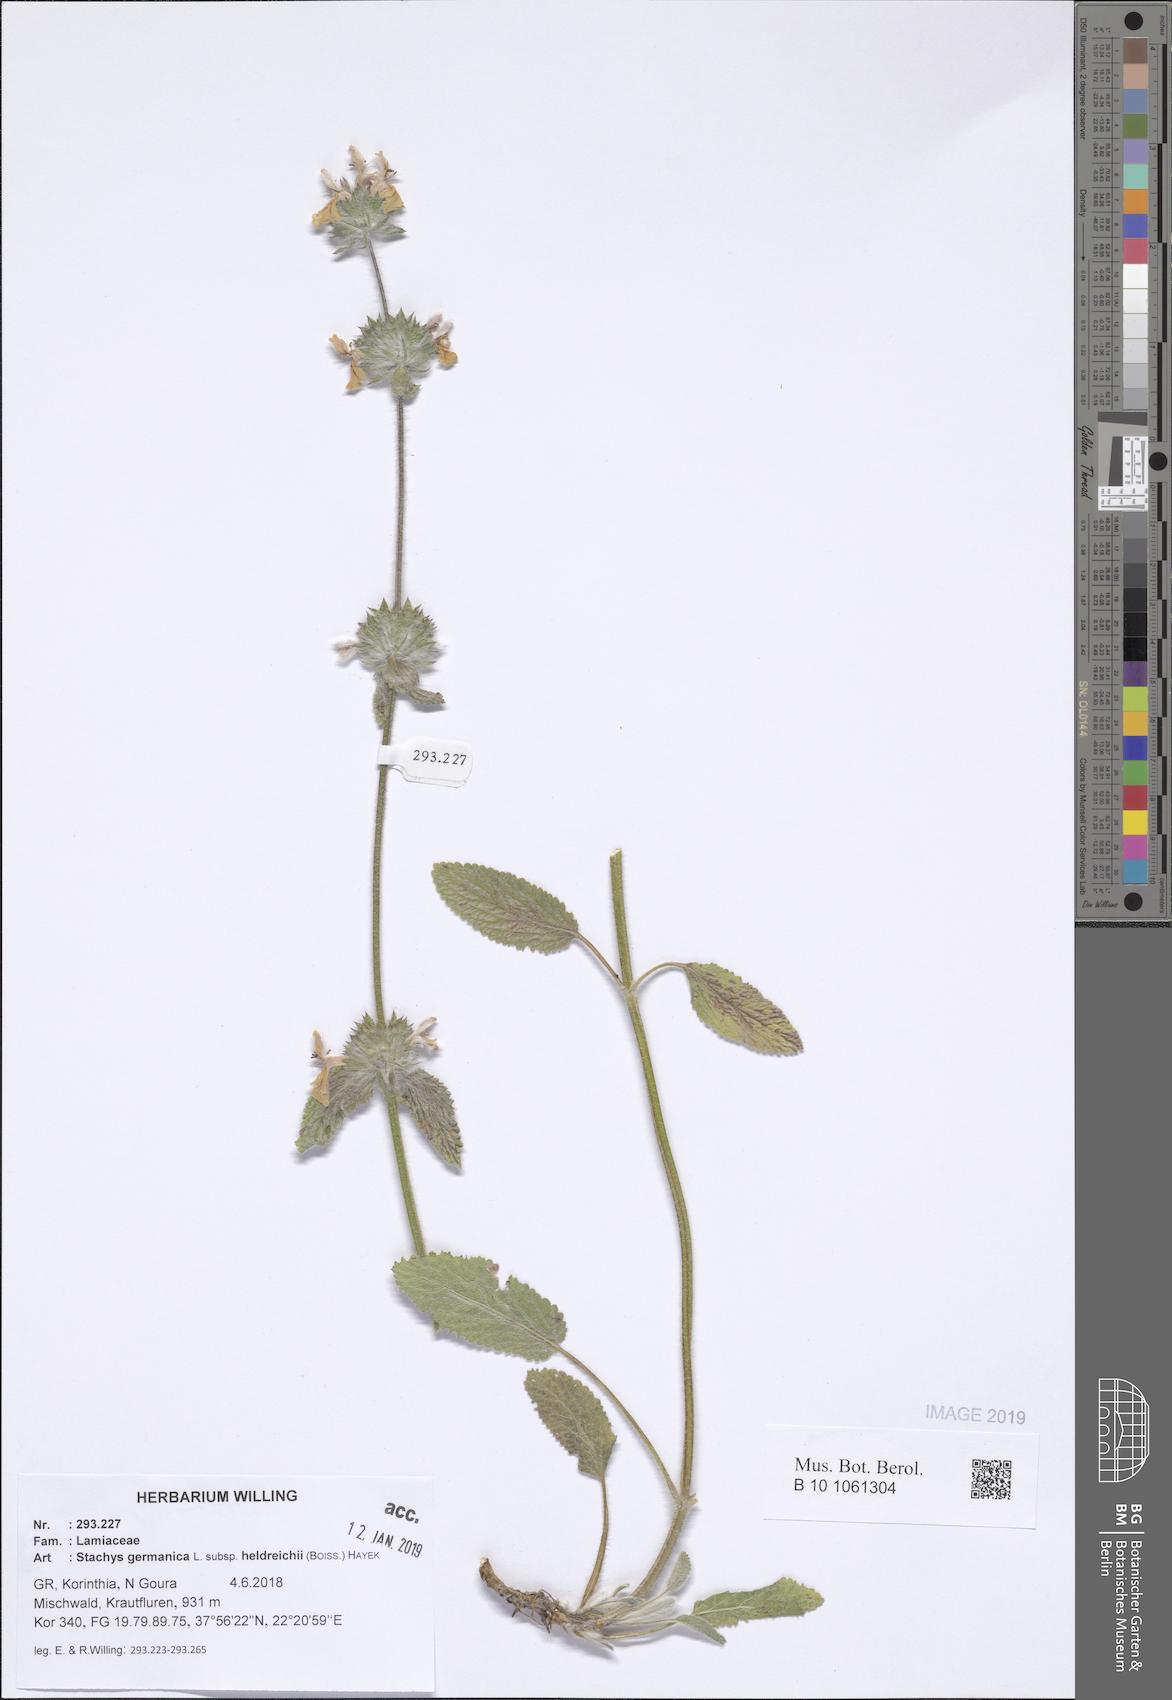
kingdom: Plantae
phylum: Tracheophyta
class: Magnoliopsida
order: Lamiales
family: Lamiaceae
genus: Stachys
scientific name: Stachys germanica
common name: Downy woundwort
